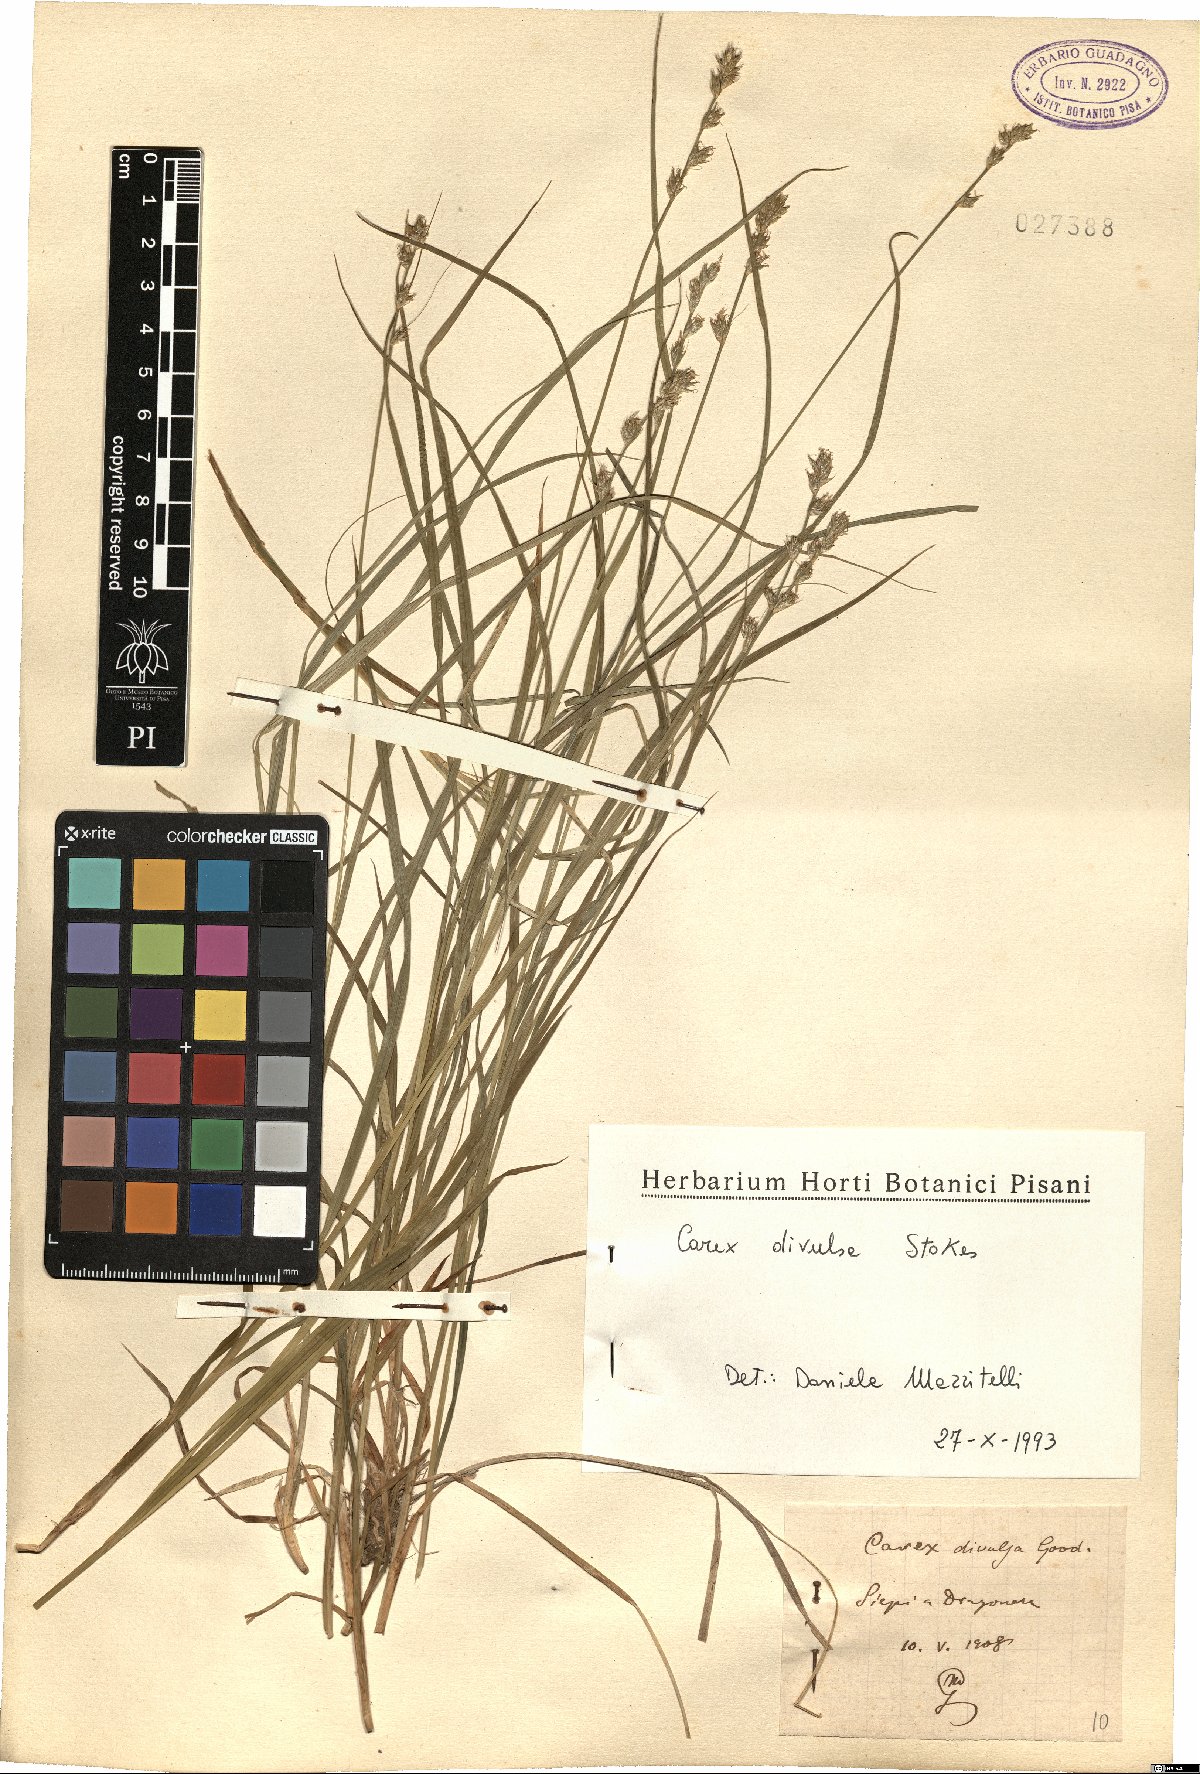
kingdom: Plantae
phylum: Tracheophyta
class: Liliopsida
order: Poales
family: Cyperaceae
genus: Carex
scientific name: Carex divulsa
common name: Grassland sedge
